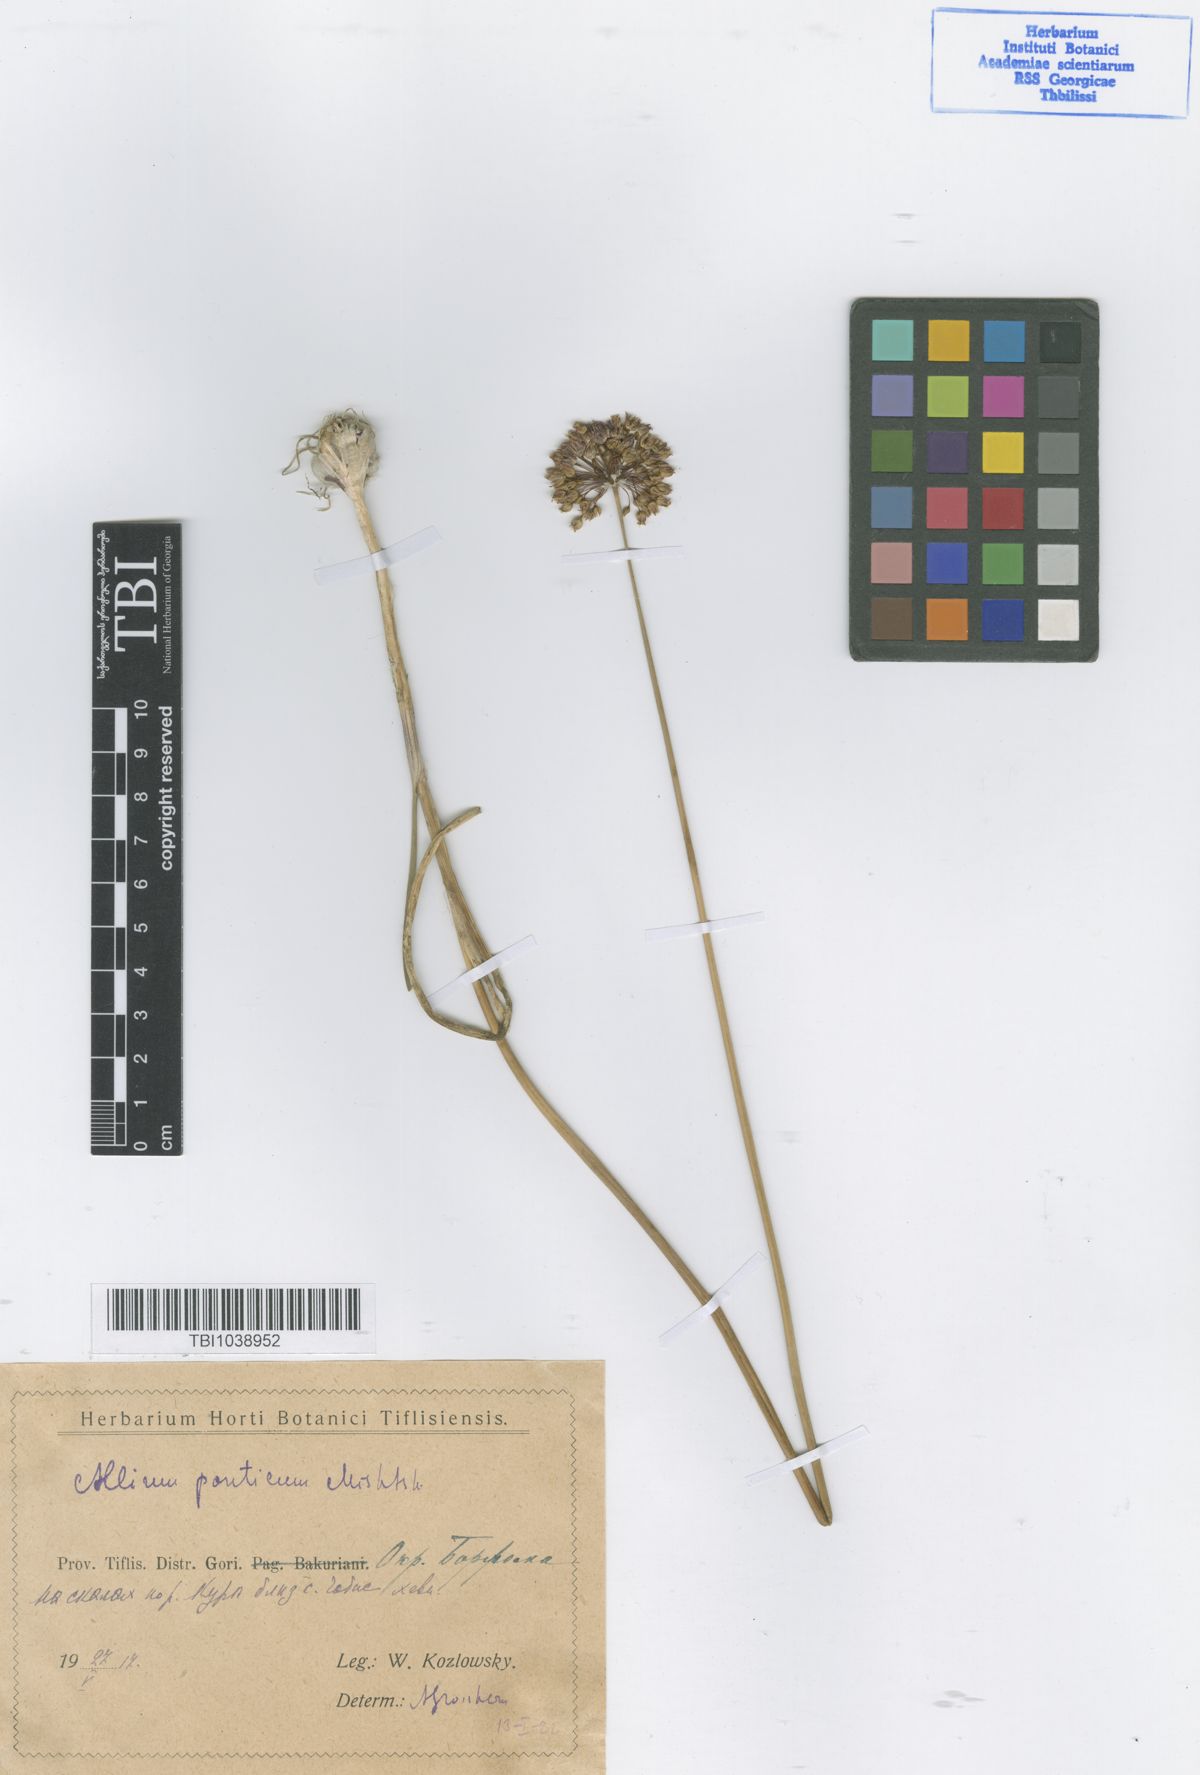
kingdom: Plantae
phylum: Tracheophyta
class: Liliopsida
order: Asparagales
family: Amaryllidaceae
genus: Allium
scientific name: Allium ponticum
